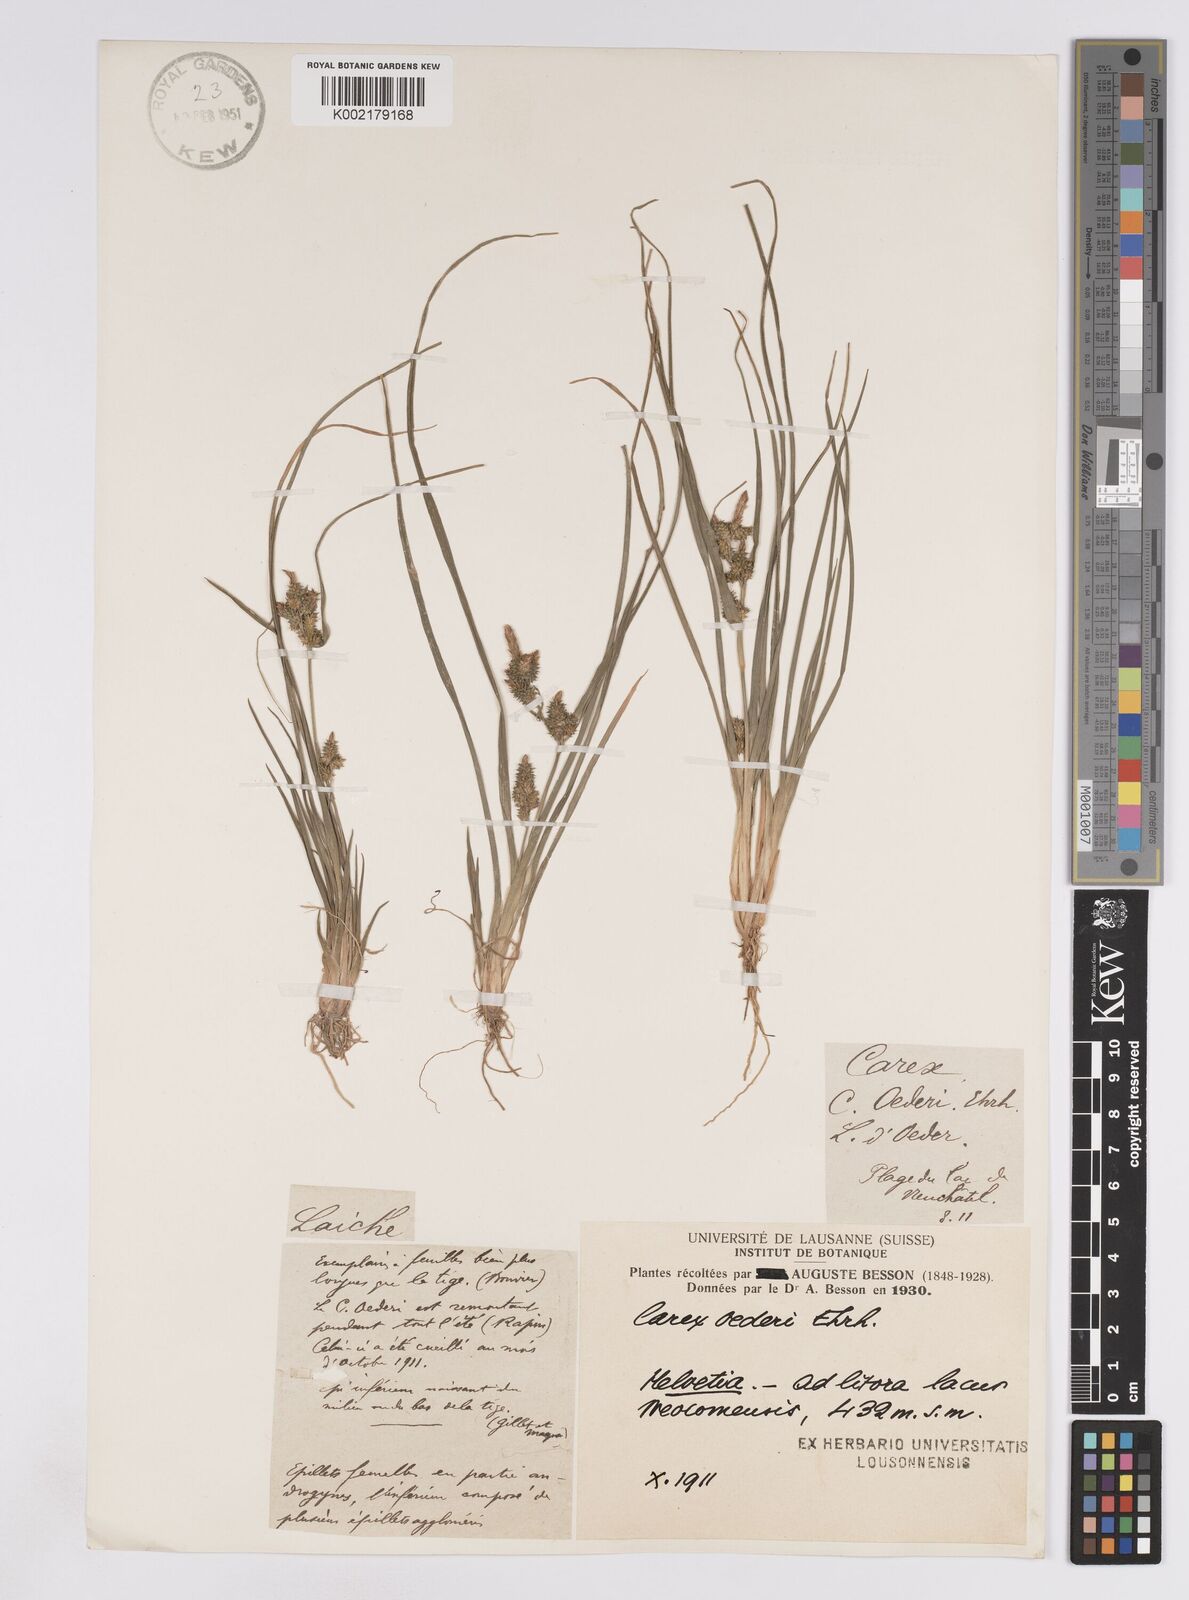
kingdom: Plantae
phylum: Tracheophyta
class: Liliopsida
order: Poales
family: Cyperaceae
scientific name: Cyperaceae
